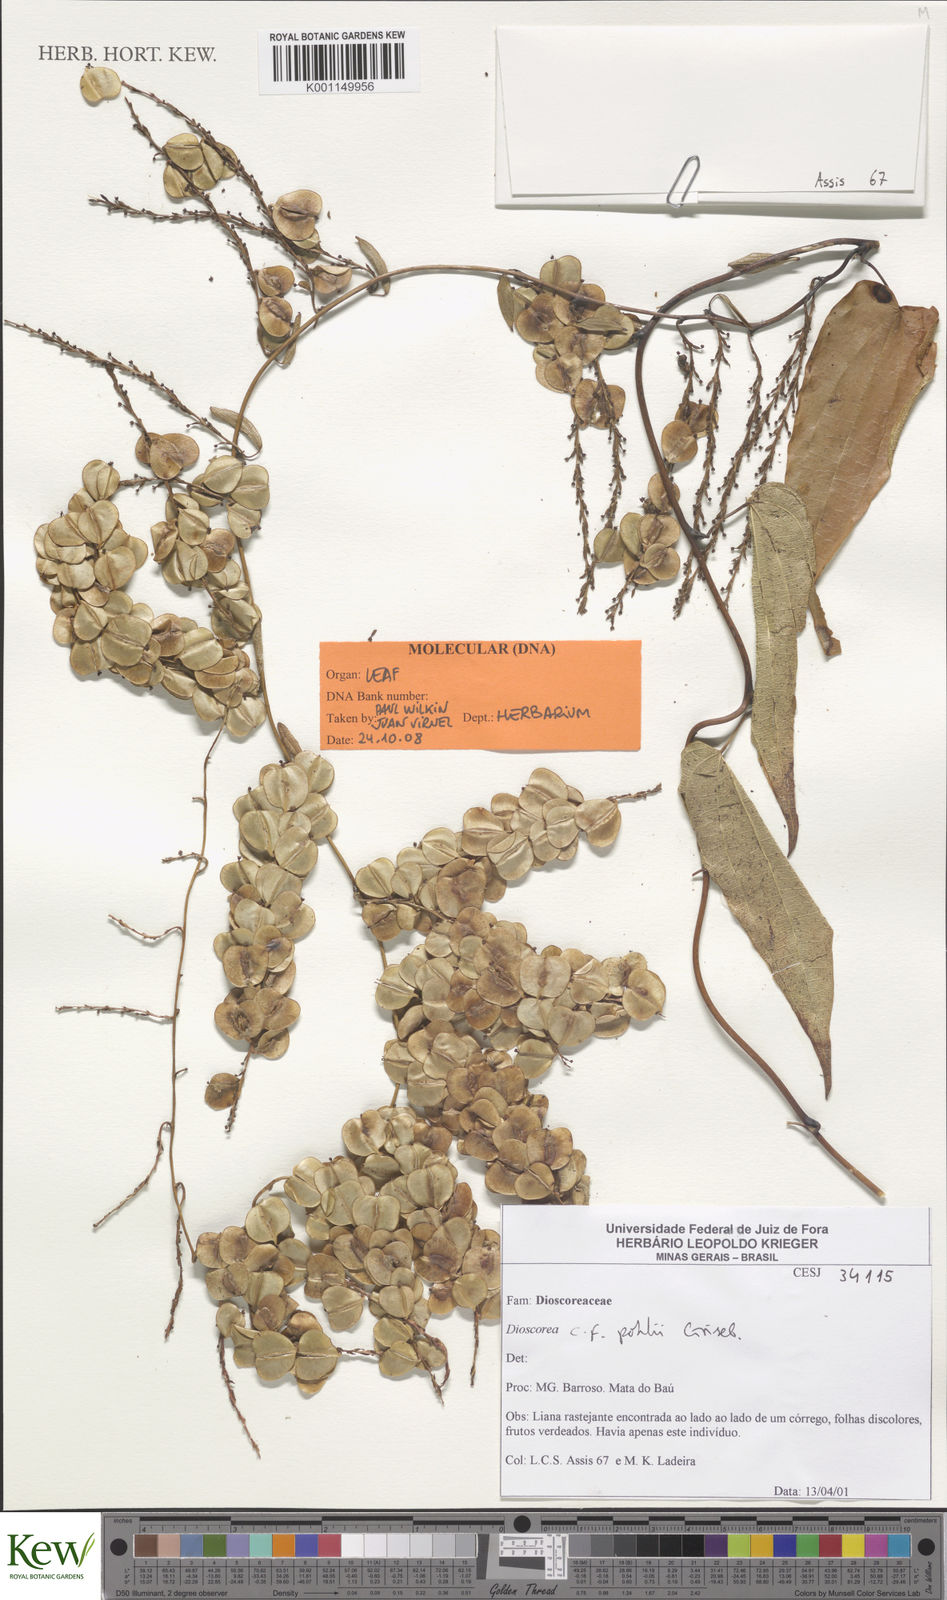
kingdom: Plantae
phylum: Tracheophyta
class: Liliopsida
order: Dioscoreales
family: Dioscoreaceae
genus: Dioscorea
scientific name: Dioscorea pohlii
